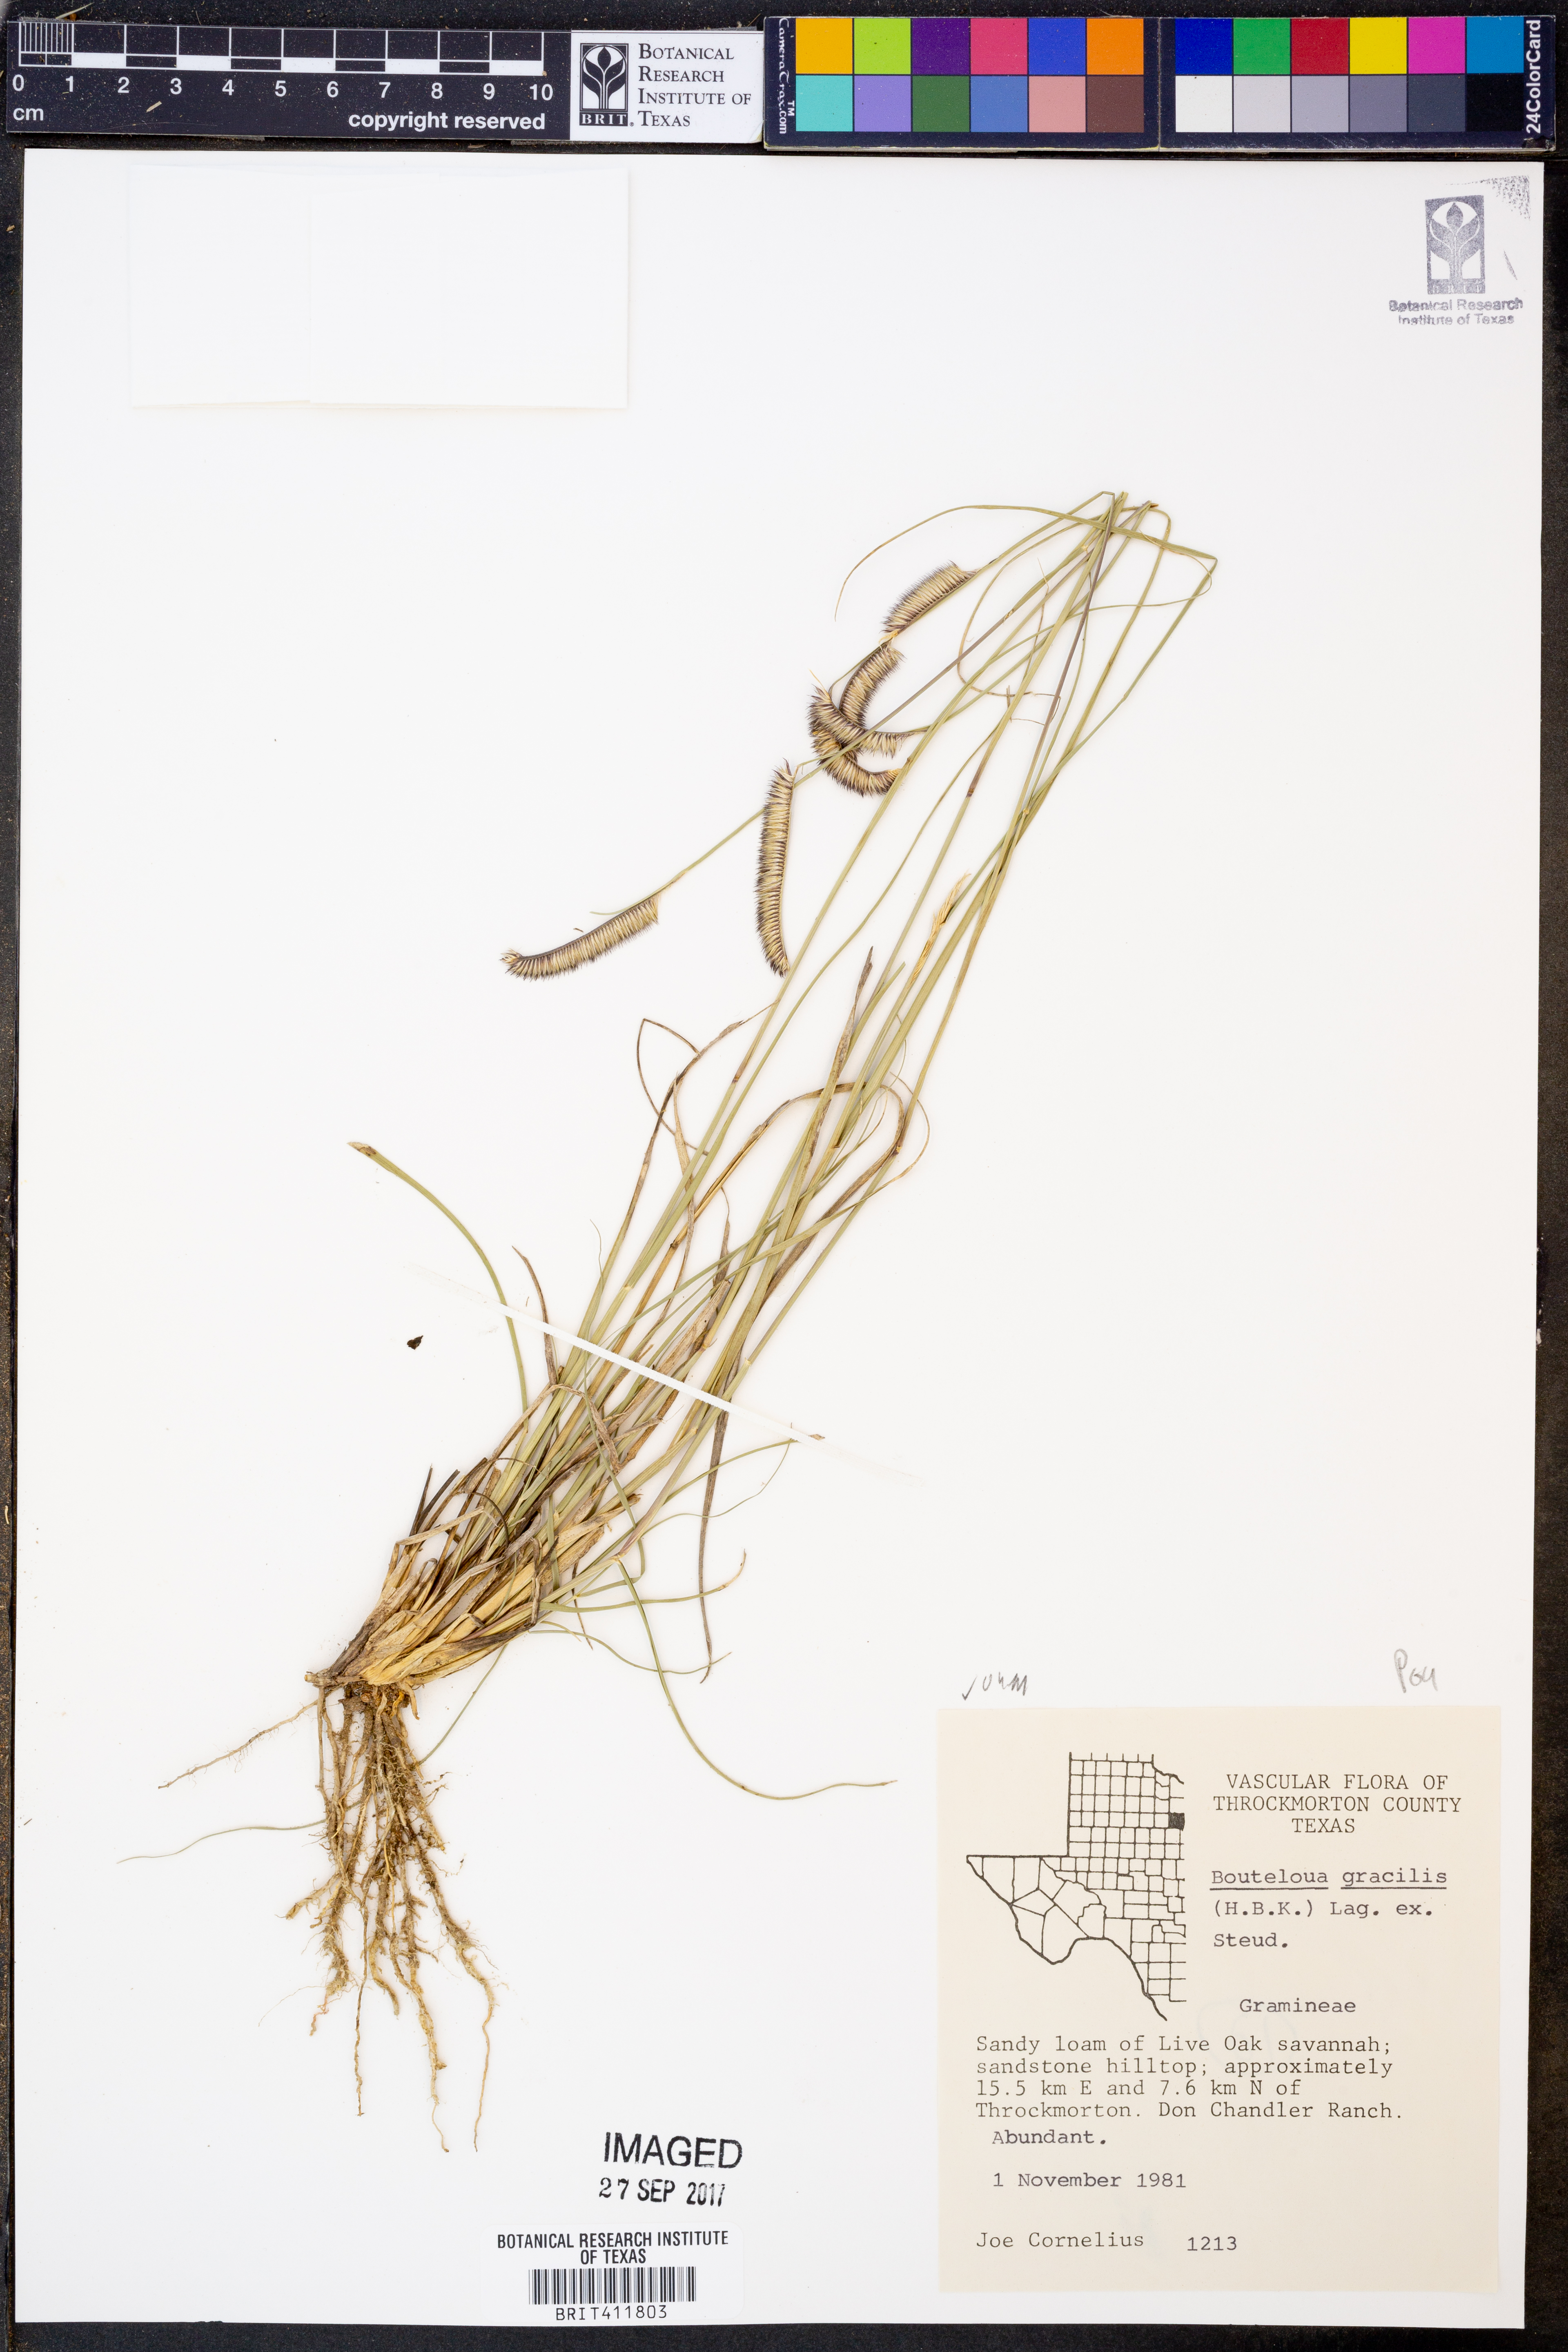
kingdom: Plantae
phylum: Tracheophyta
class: Liliopsida
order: Poales
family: Poaceae
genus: Bouteloua
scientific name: Bouteloua gracilis
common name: Blue grama
